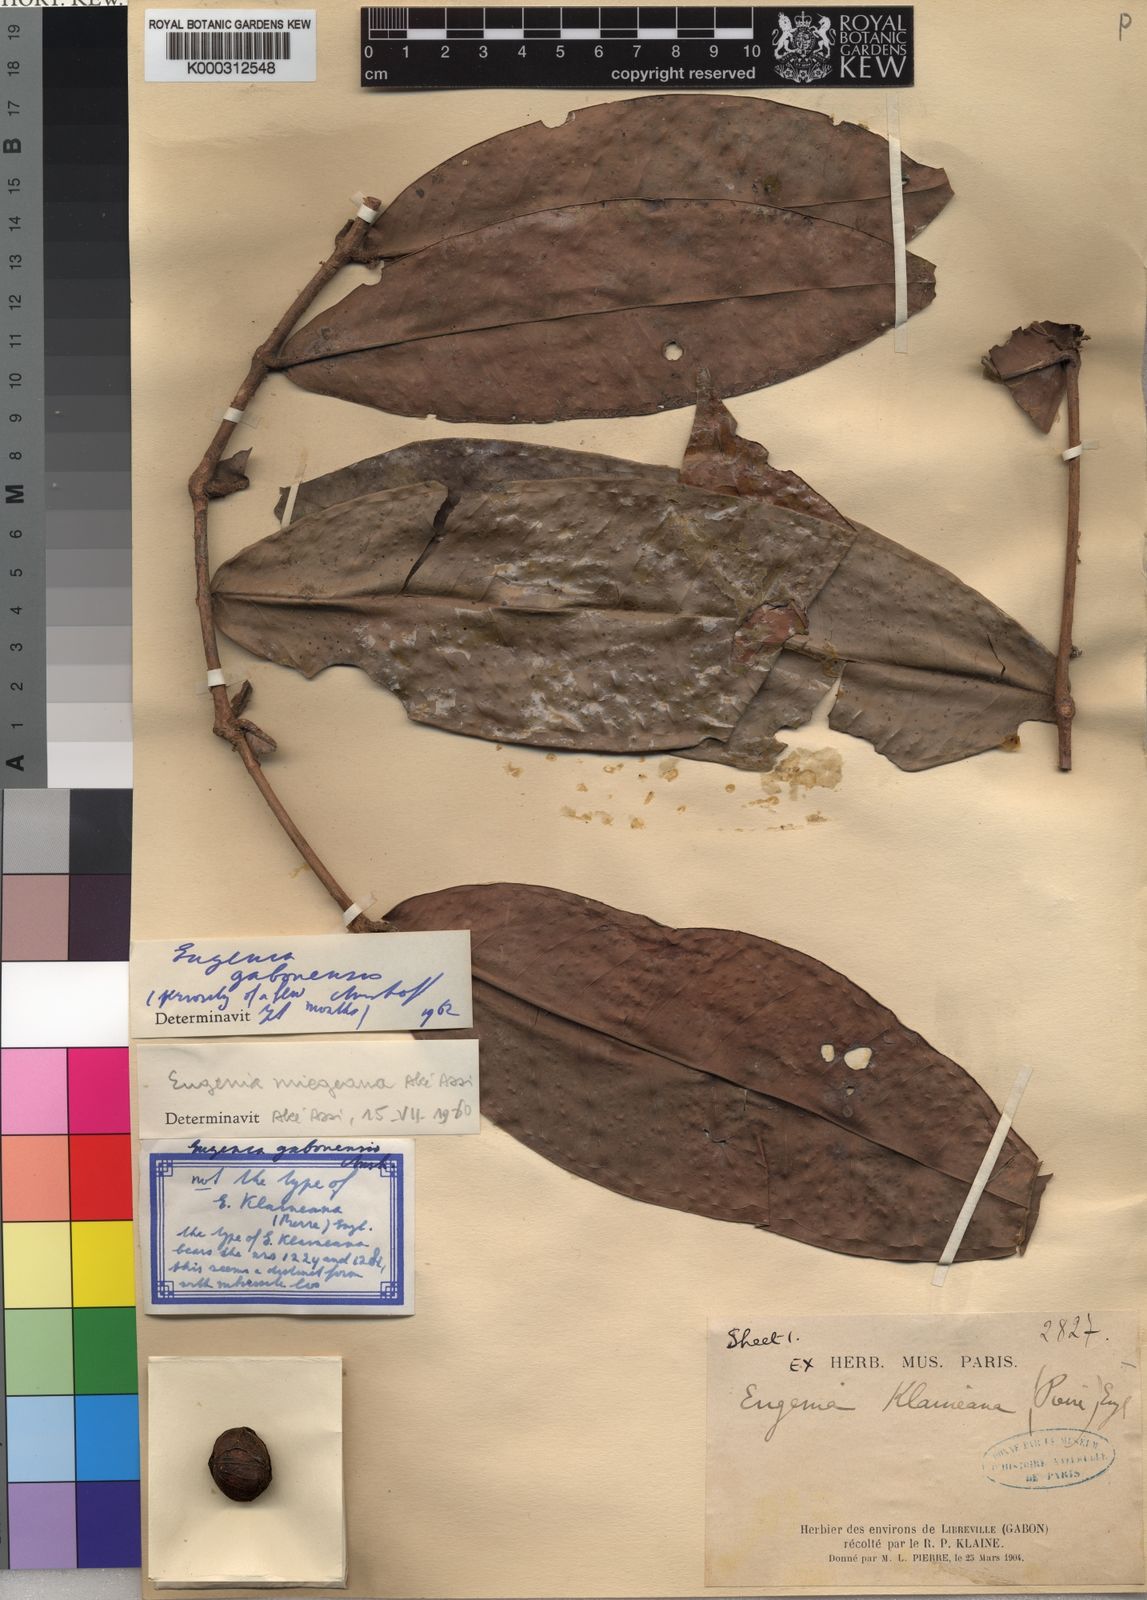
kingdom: Plantae
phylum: Tracheophyta
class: Magnoliopsida
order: Myrtales
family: Myrtaceae
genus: Eugenia
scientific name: Eugenia gabonensis
